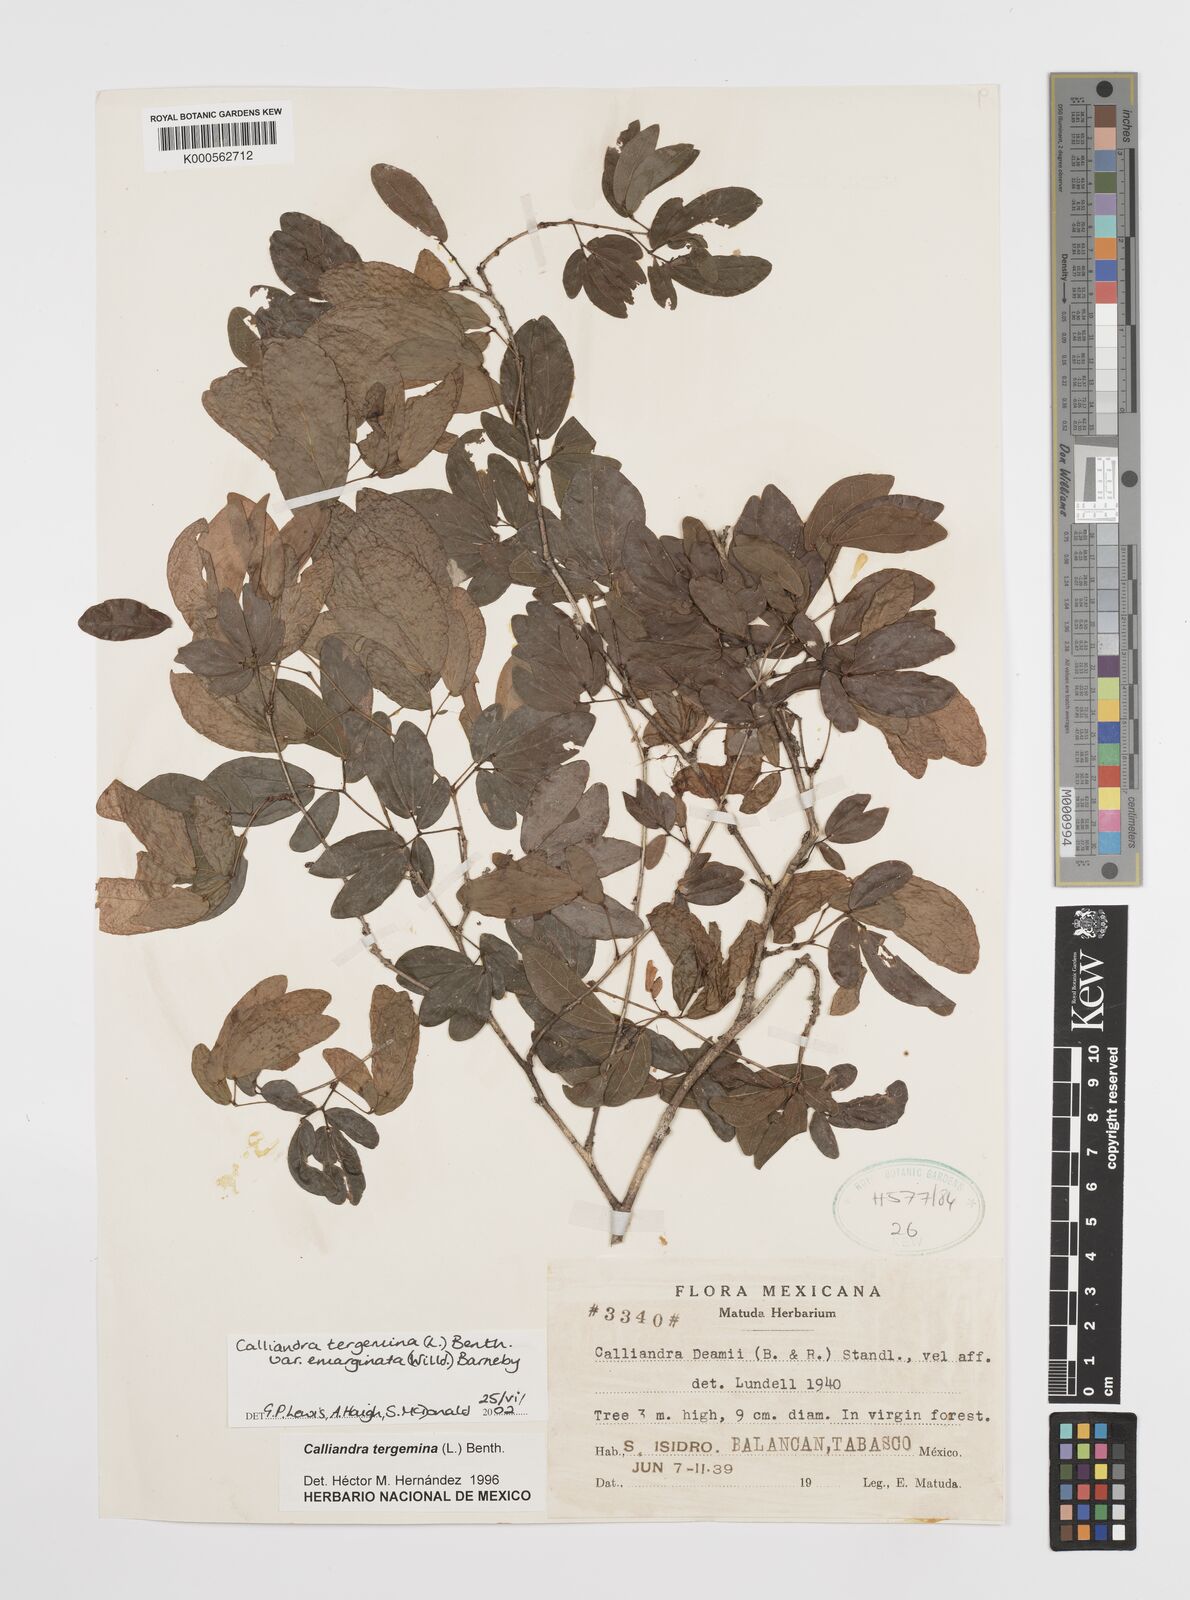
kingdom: Plantae
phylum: Tracheophyta
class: Magnoliopsida
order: Fabales
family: Fabaceae
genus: Calliandra
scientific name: Calliandra tergemina
